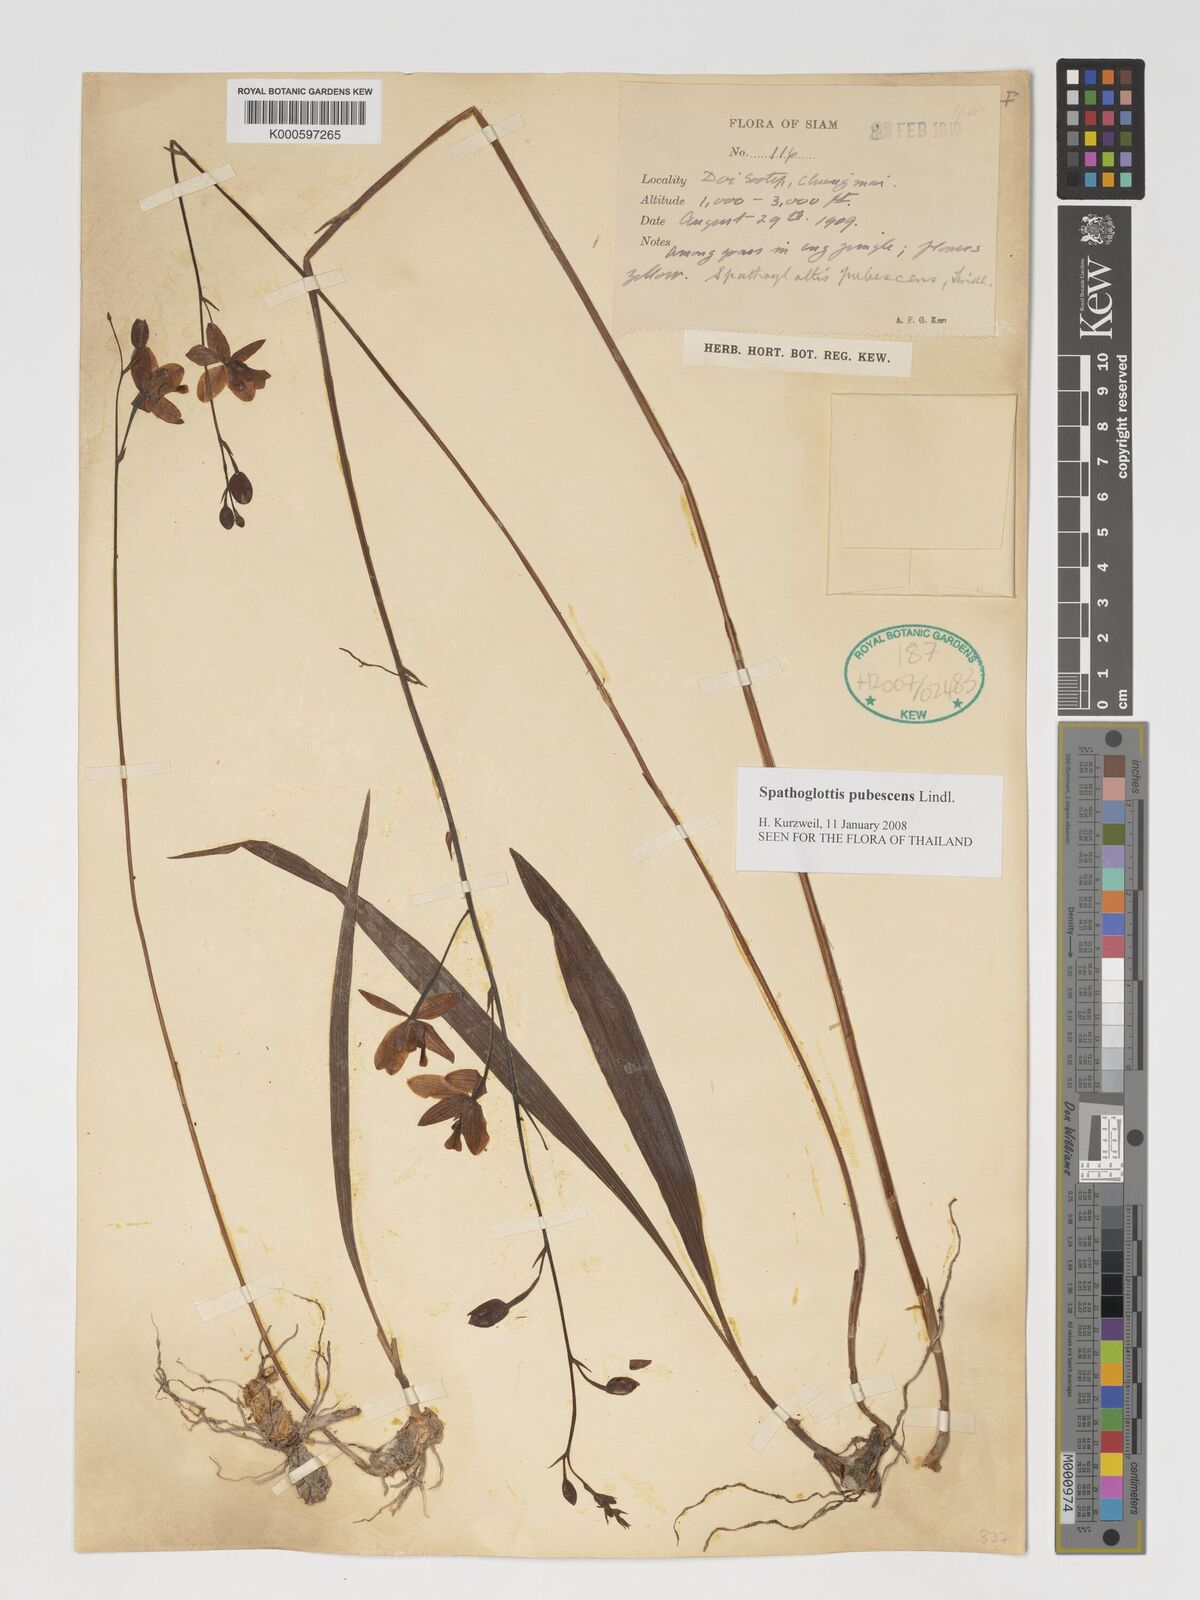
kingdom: Plantae
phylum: Tracheophyta
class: Liliopsida
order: Asparagales
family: Orchidaceae
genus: Spathoglottis
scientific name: Spathoglottis pubescens
